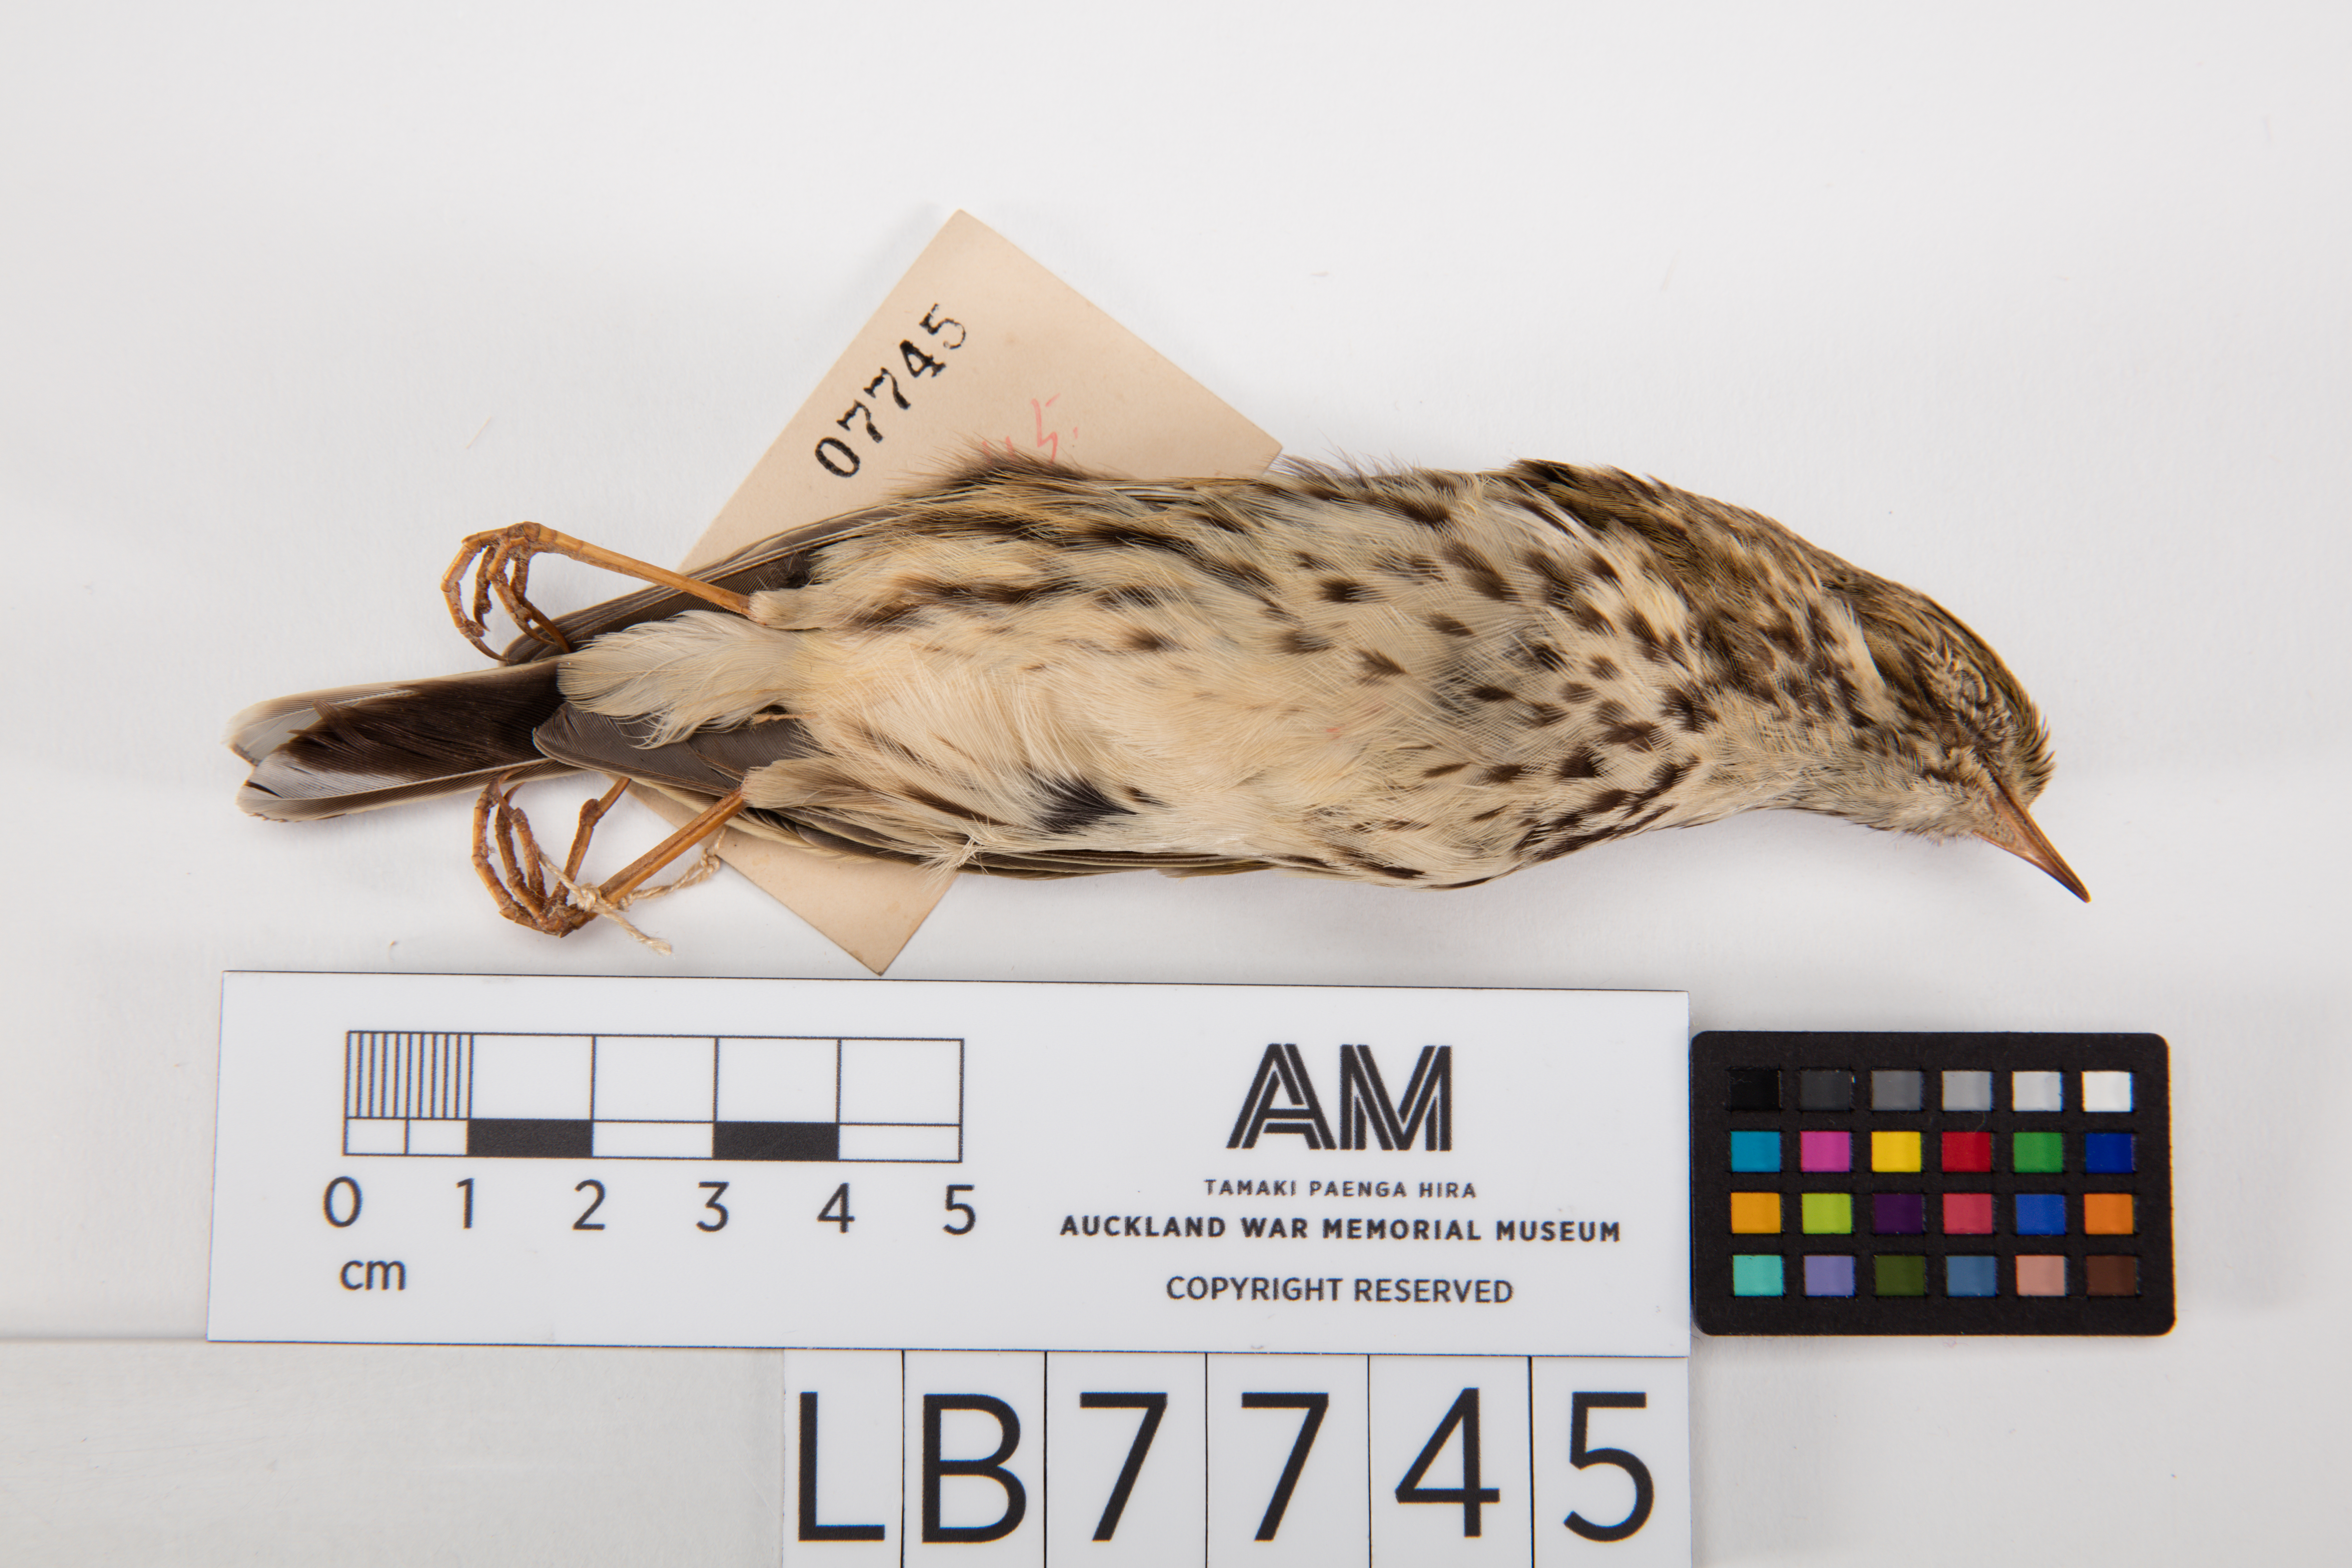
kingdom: Animalia
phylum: Chordata
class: Aves
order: Passeriformes
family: Motacillidae
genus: Anthus
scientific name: Anthus pratensis
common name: Meadow pipit
